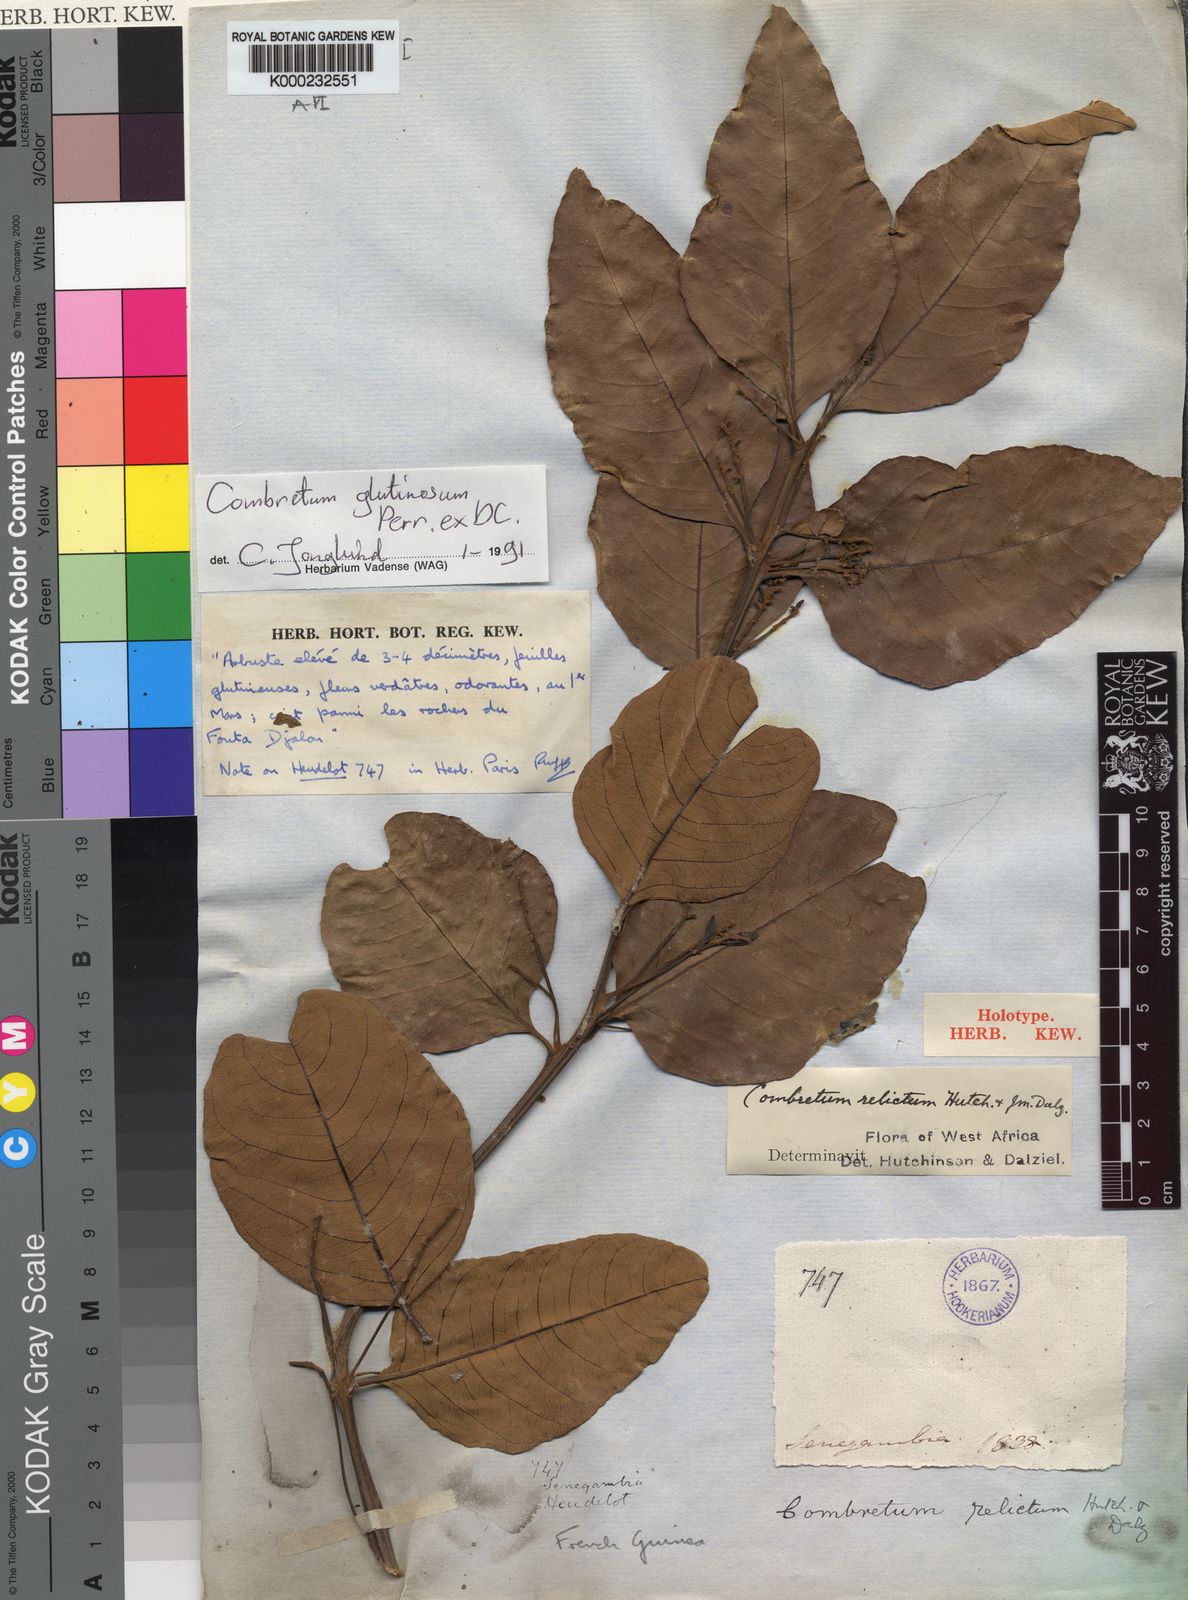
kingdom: Plantae
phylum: Tracheophyta
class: Magnoliopsida
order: Myrtales
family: Combretaceae
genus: Combretum
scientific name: Combretum glutinosum
